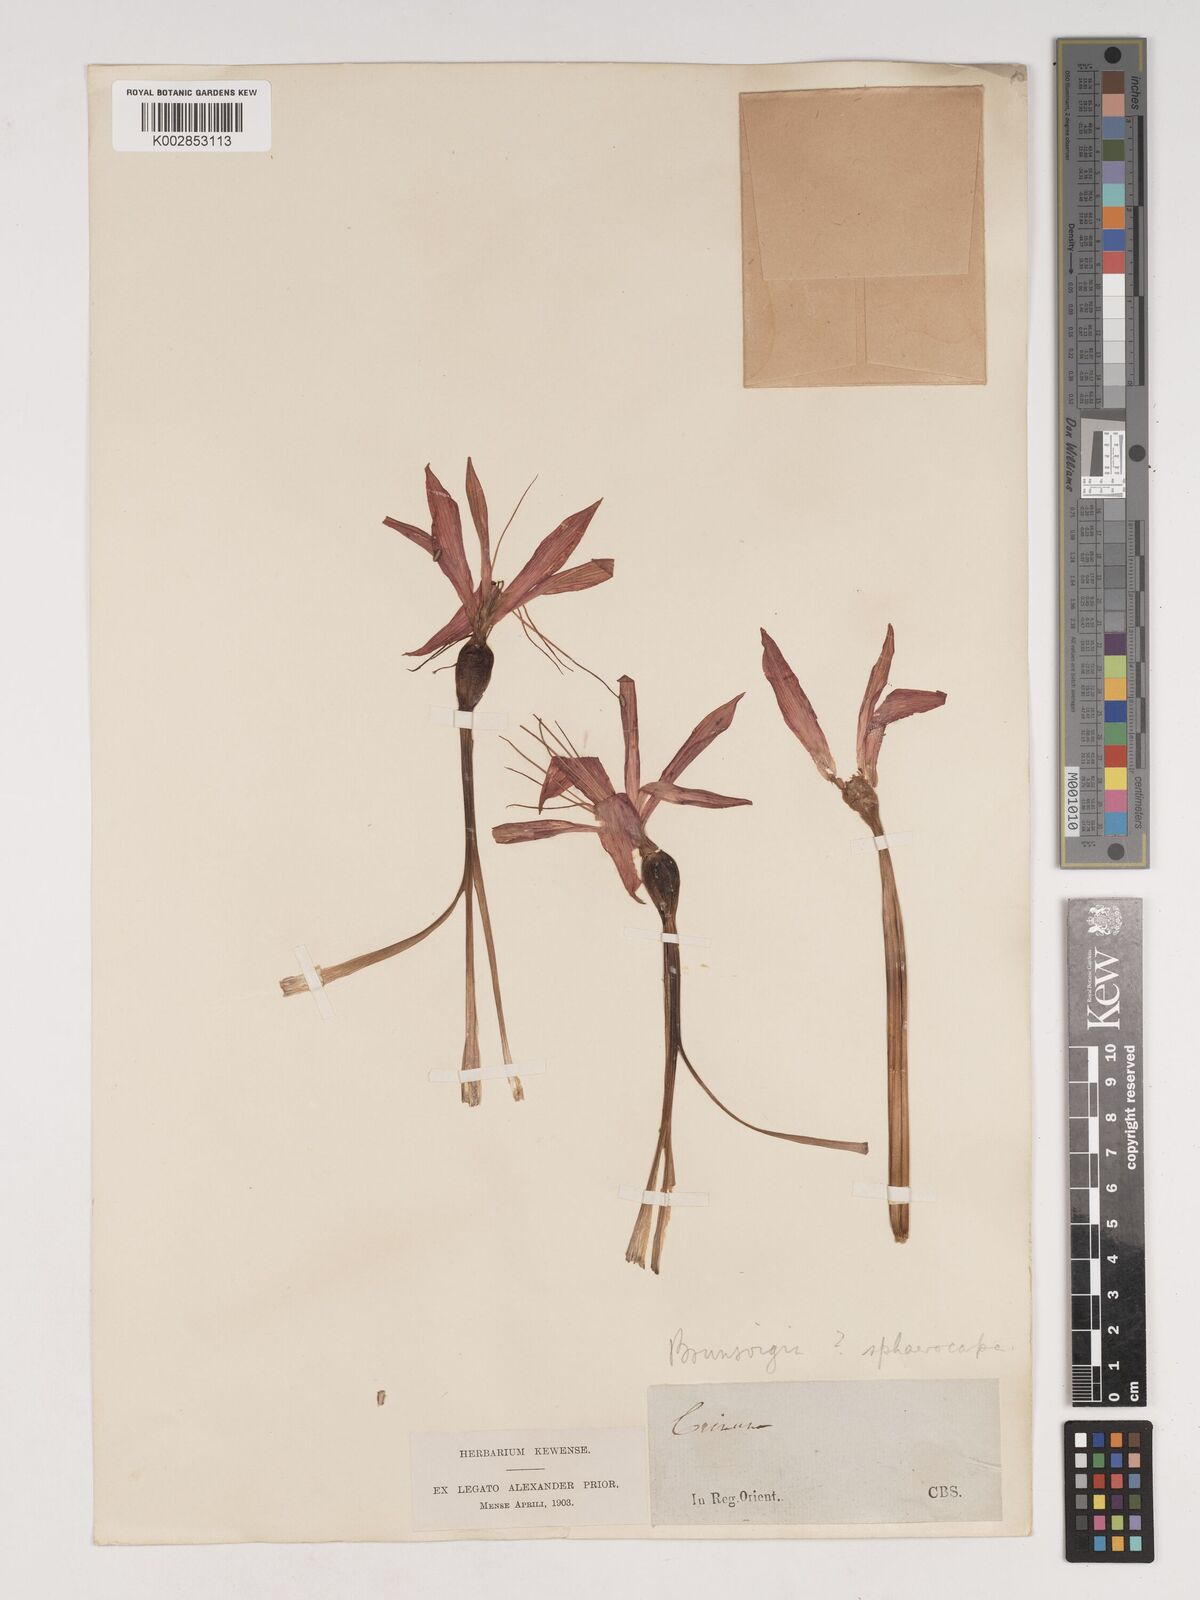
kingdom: Plantae
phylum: Tracheophyta
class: Liliopsida
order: Asparagales
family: Amaryllidaceae
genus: Brunsvigia
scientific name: Brunsvigia grandiflora
